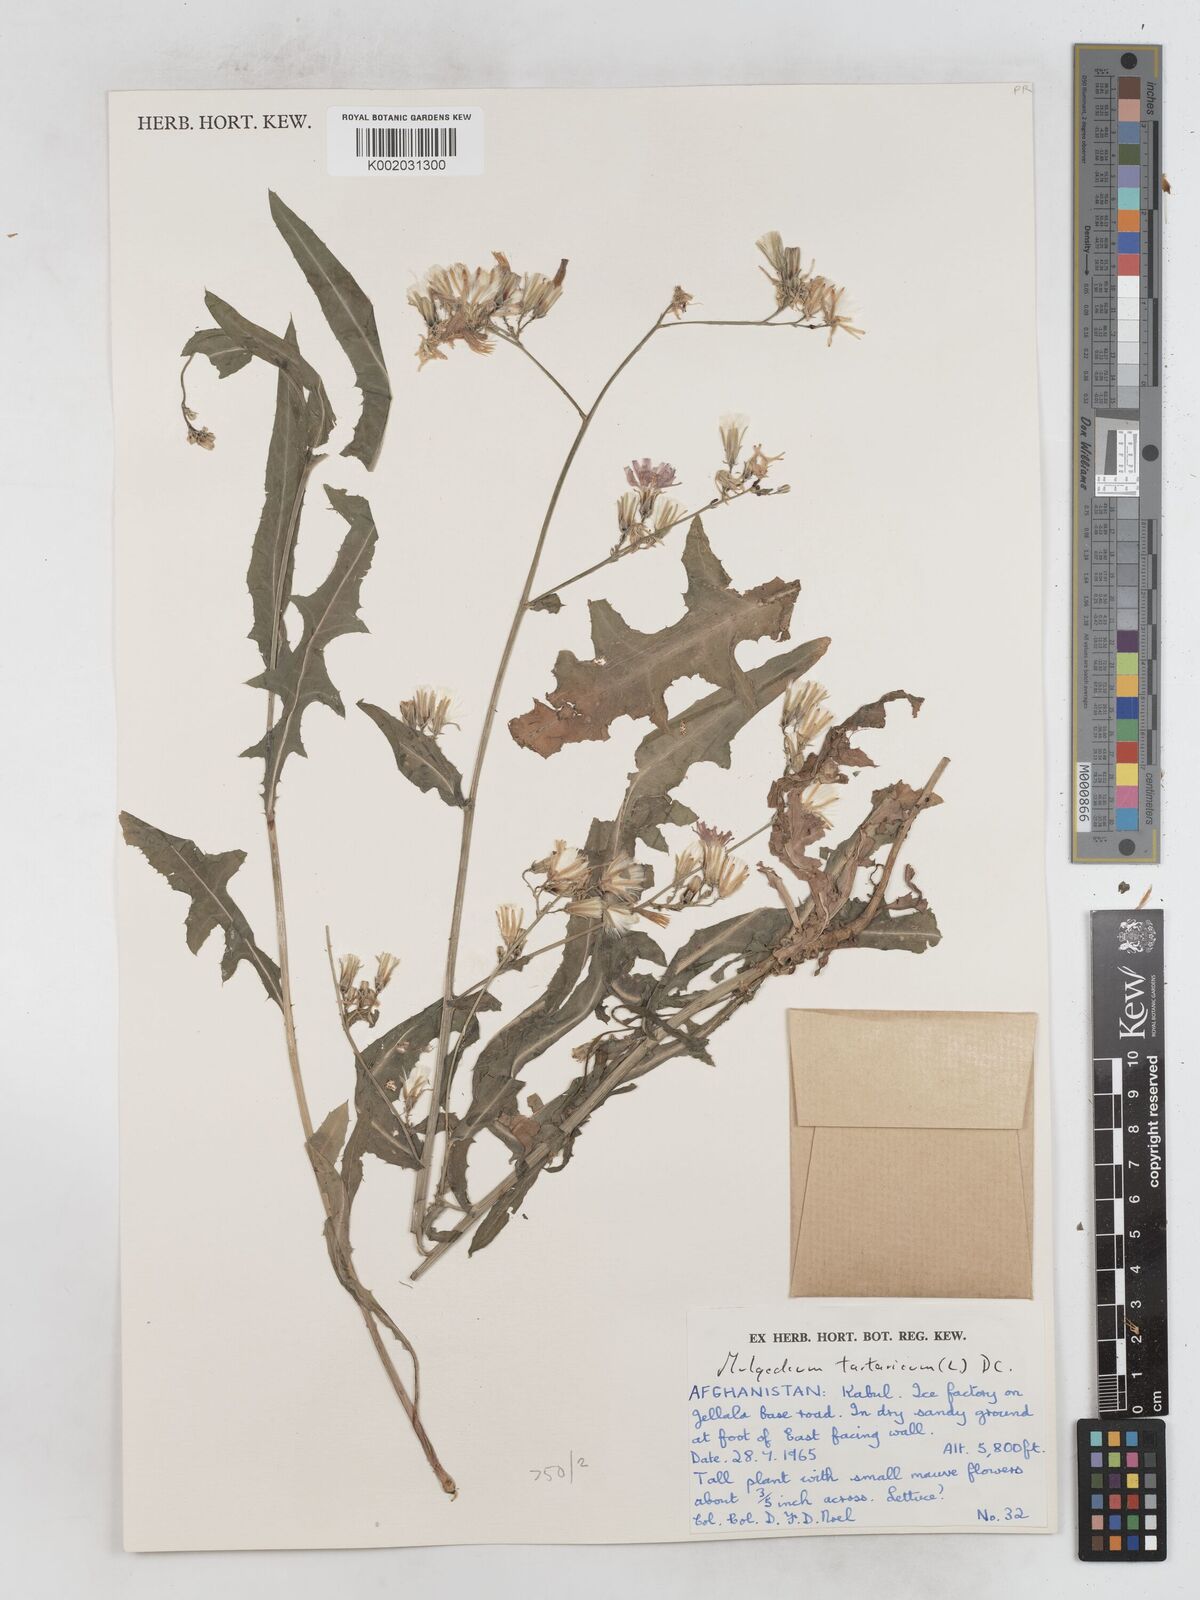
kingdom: Plantae
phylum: Tracheophyta
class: Magnoliopsida
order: Asterales
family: Asteraceae
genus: Lactuca
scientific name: Lactuca tatarica
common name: Blue lettuce
